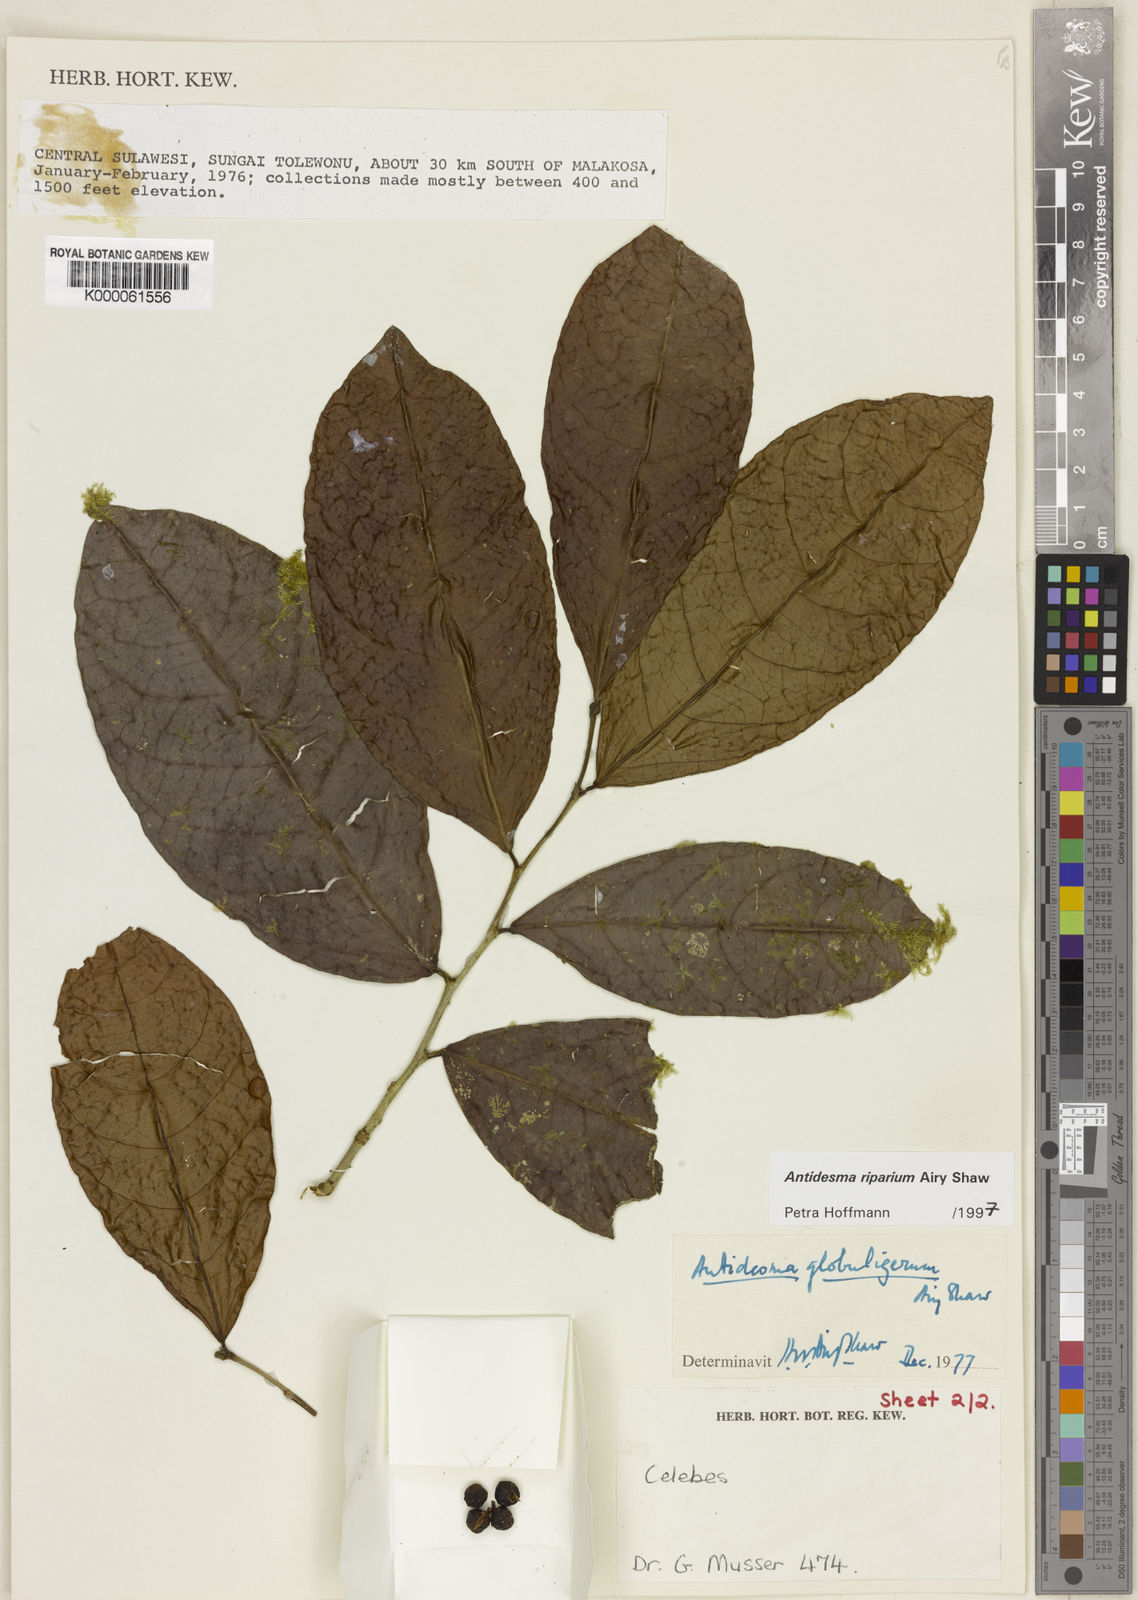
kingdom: Plantae
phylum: Tracheophyta
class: Magnoliopsida
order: Malpighiales
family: Phyllanthaceae
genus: Antidesma
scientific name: Antidesma riparium
